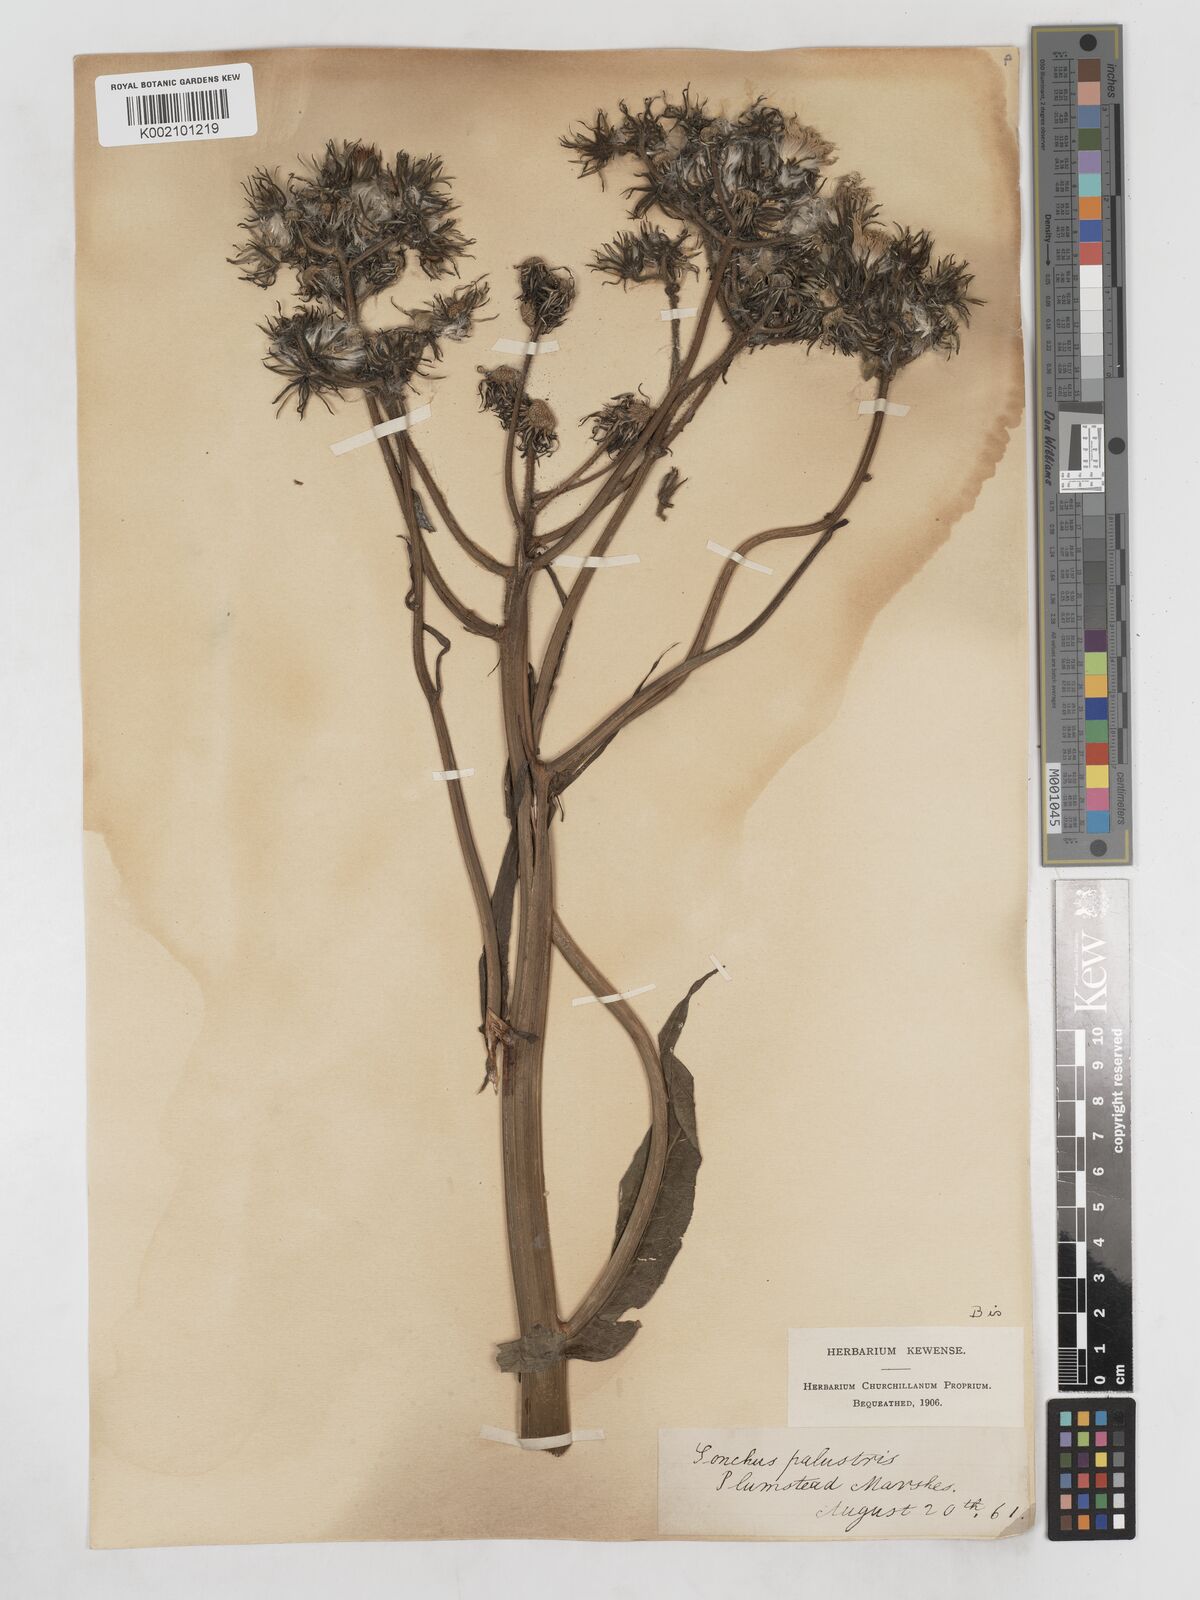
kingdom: Plantae
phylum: Tracheophyta
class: Magnoliopsida
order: Asterales
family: Asteraceae
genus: Sonchus
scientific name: Sonchus palustris
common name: Marsh sow-thistle
